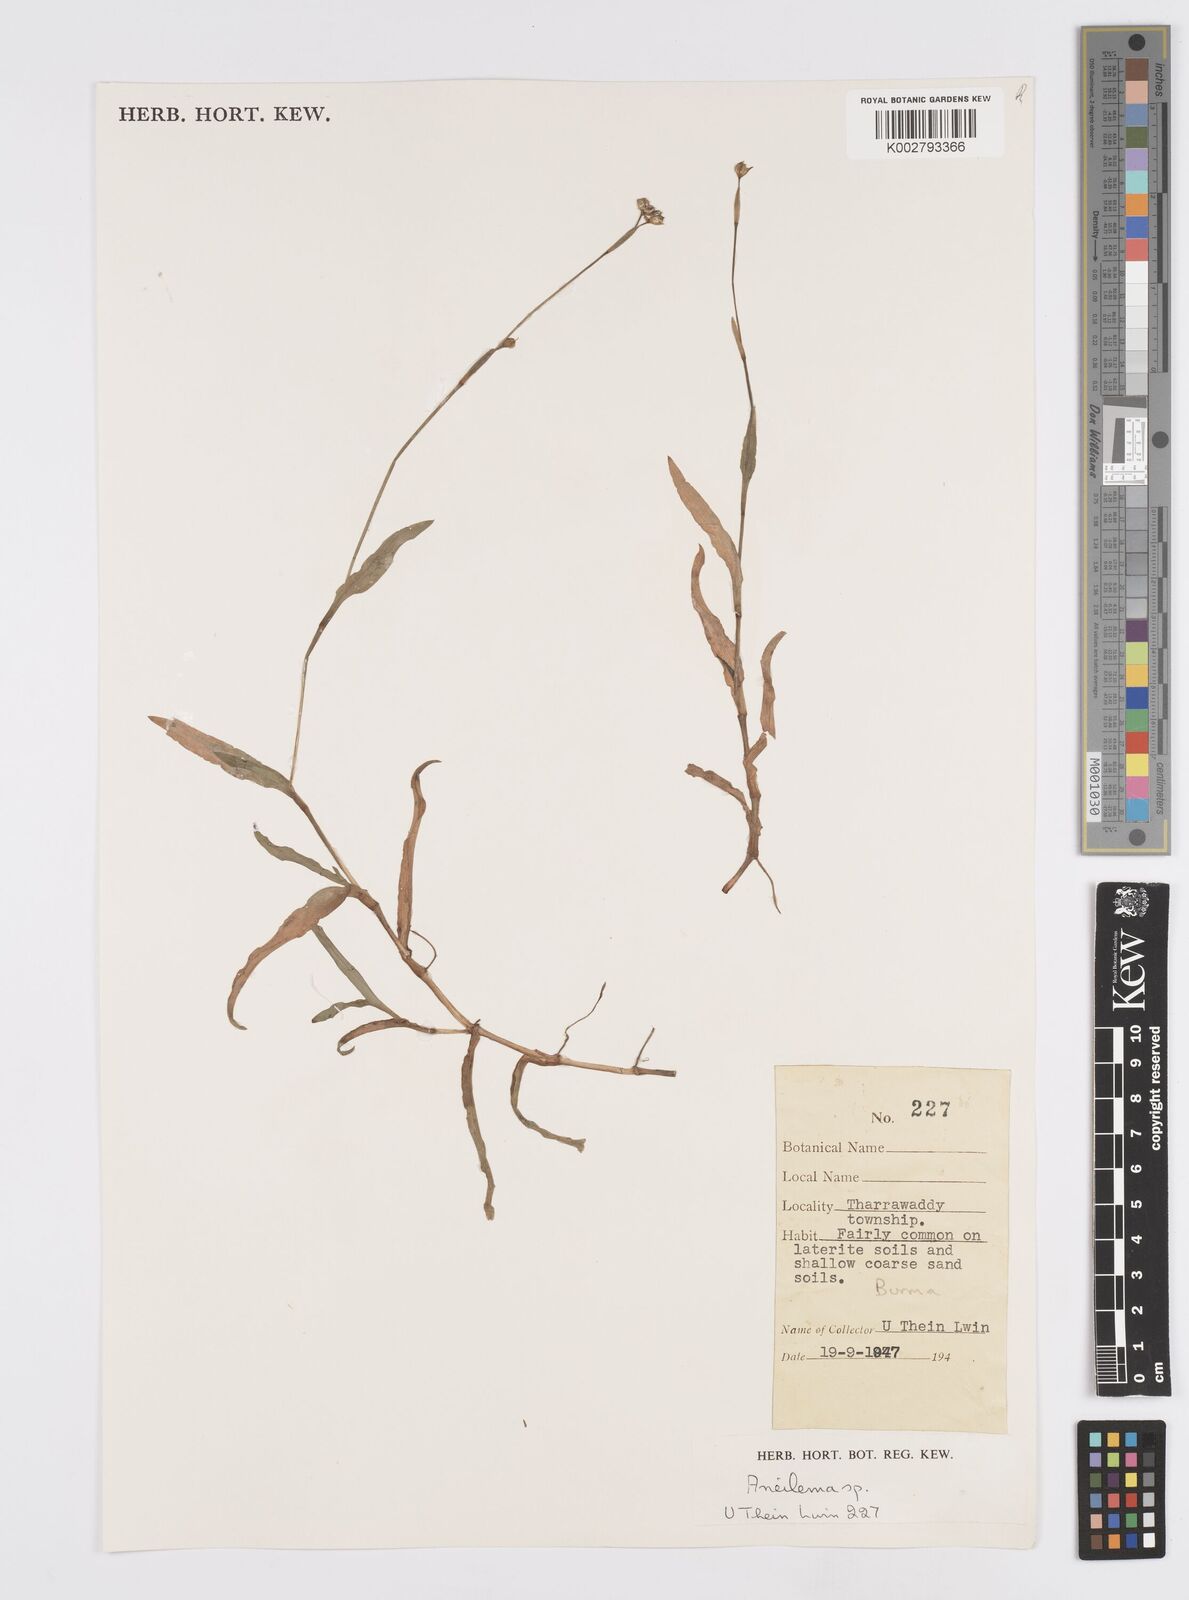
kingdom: Plantae
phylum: Tracheophyta
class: Liliopsida
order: Commelinales
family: Commelinaceae
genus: Murdannia
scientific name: Murdannia
